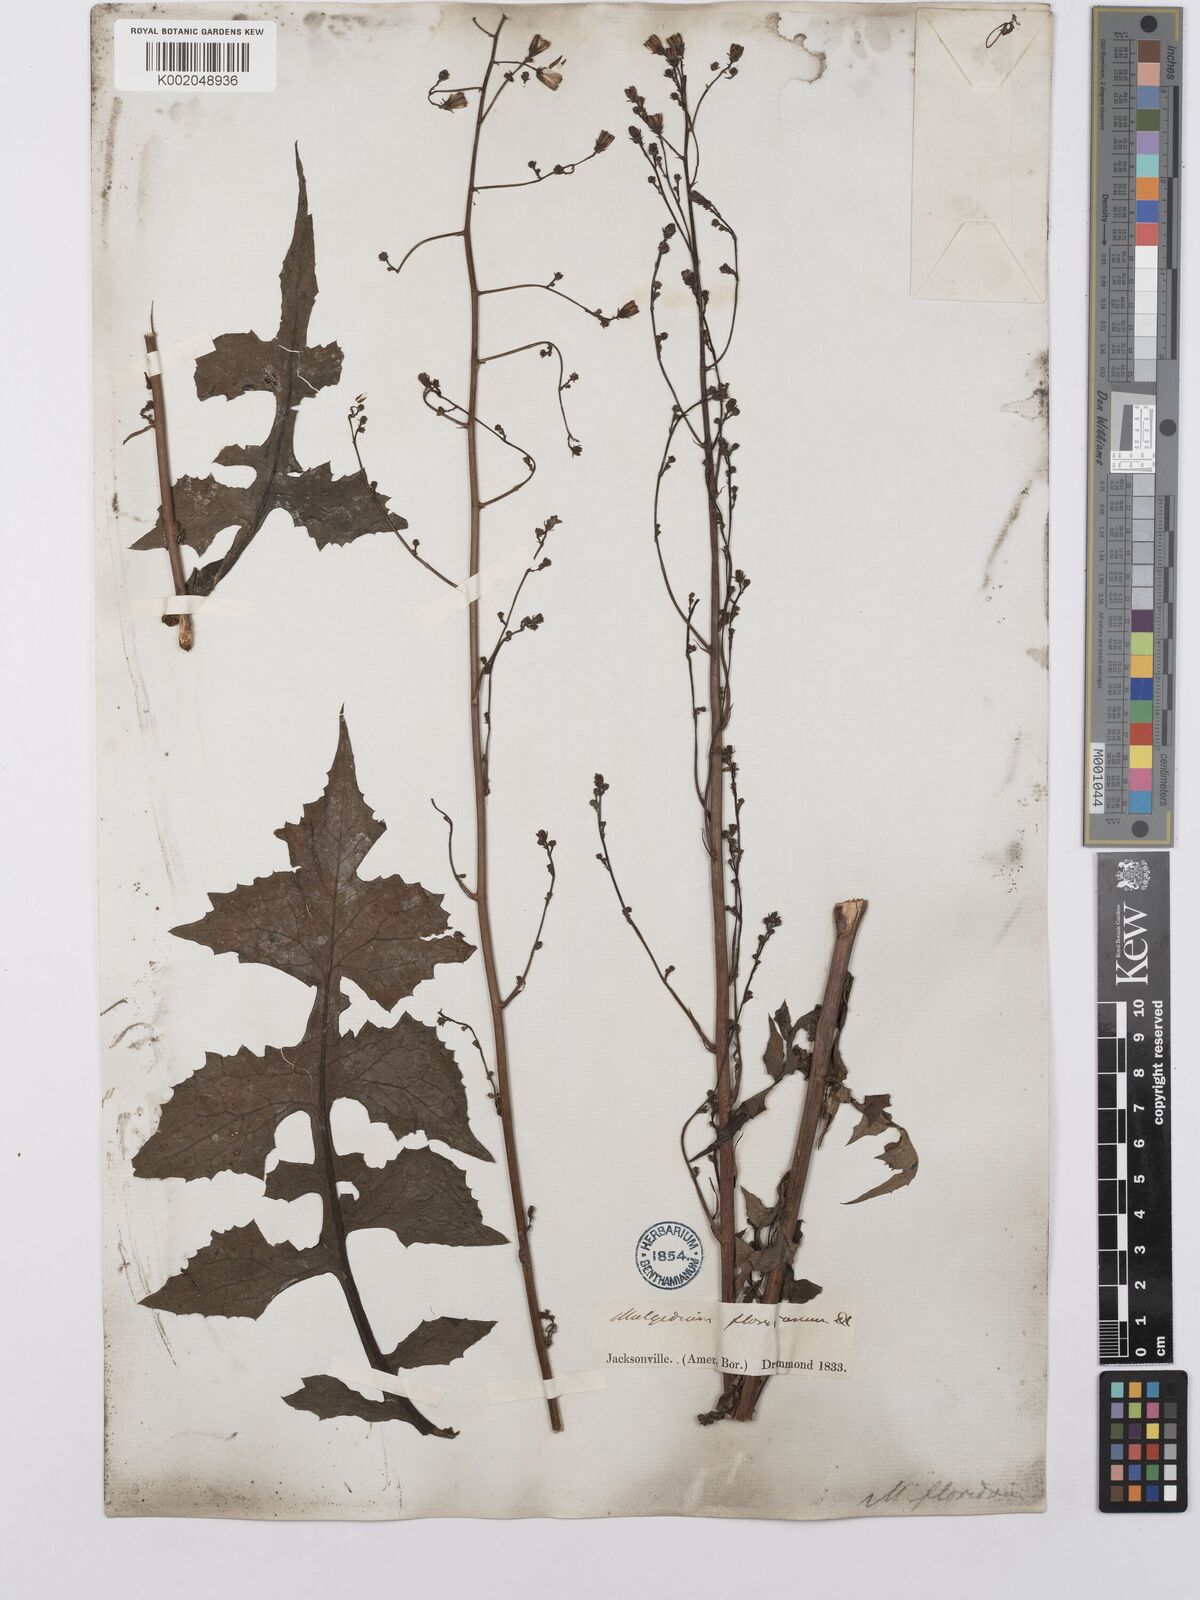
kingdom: Plantae
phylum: Tracheophyta
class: Magnoliopsida
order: Asterales
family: Asteraceae
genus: Lactuca
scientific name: Lactuca floridana
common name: Woodland lettuce
